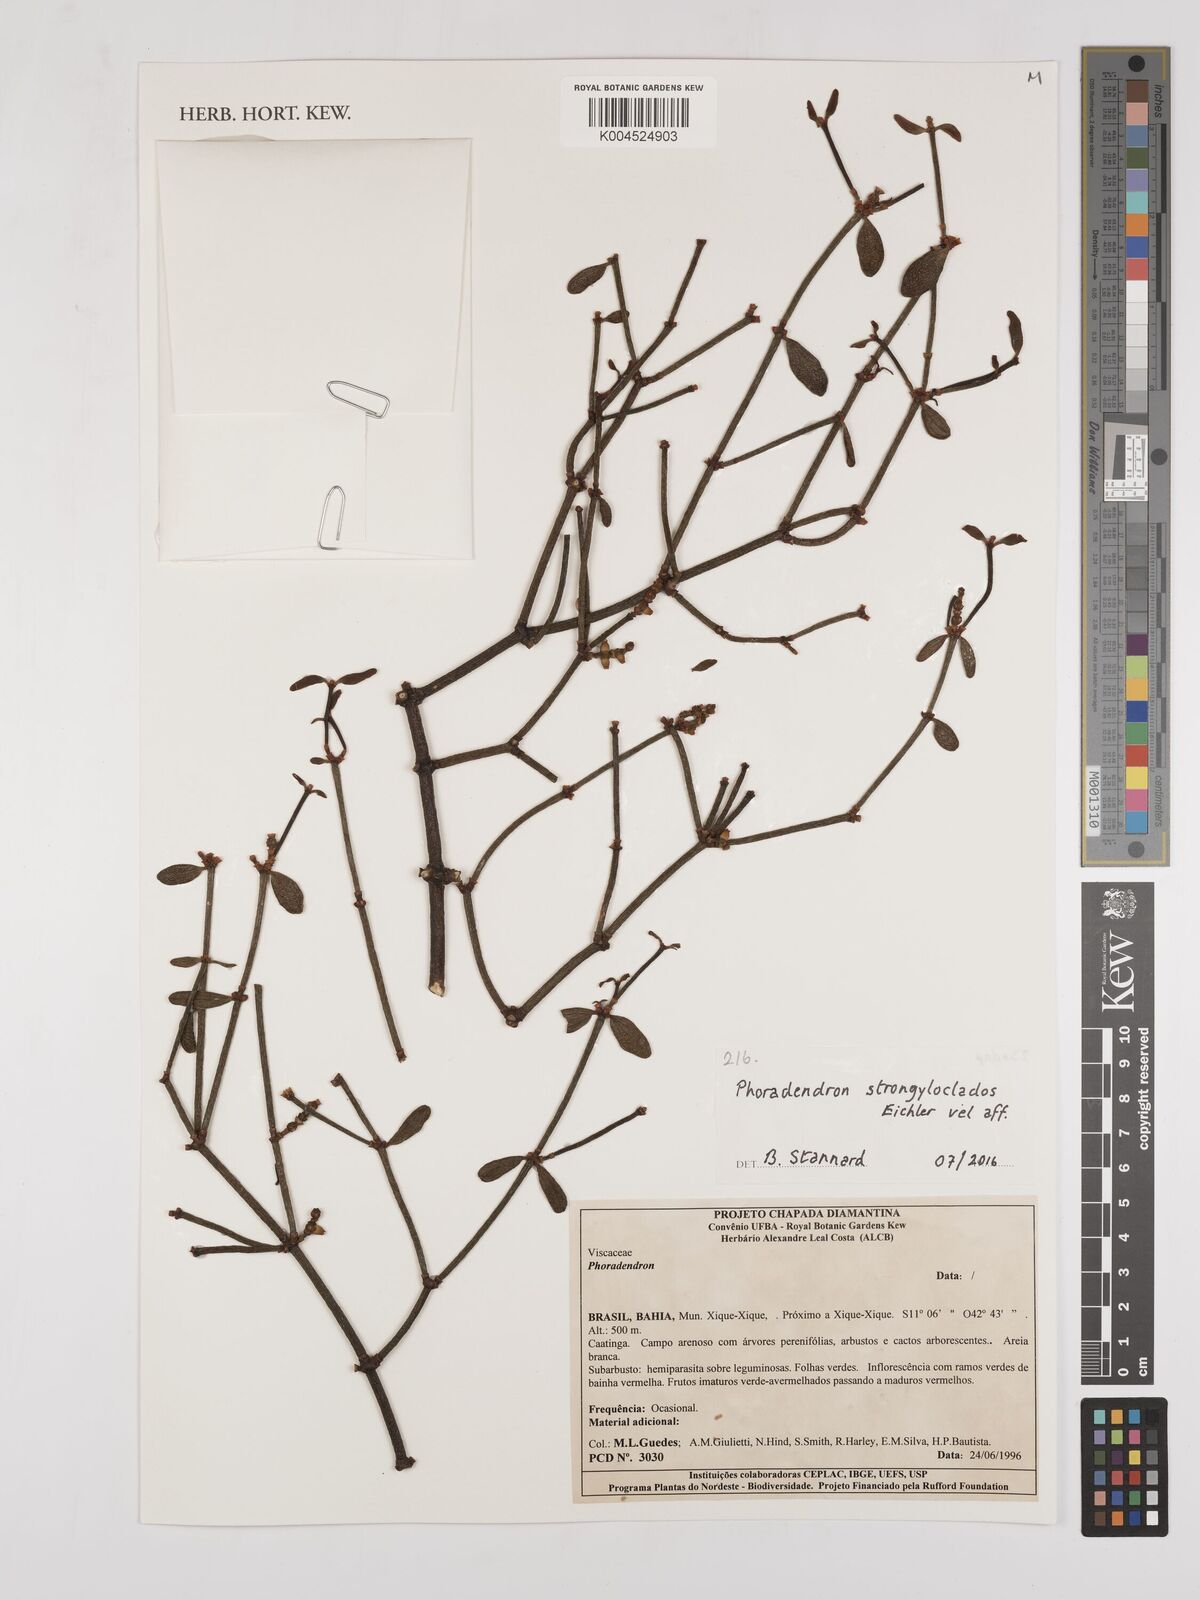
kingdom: Plantae
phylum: Tracheophyta
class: Magnoliopsida
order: Santalales
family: Viscaceae
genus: Phoradendron
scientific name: Phoradendron strongyloclados
